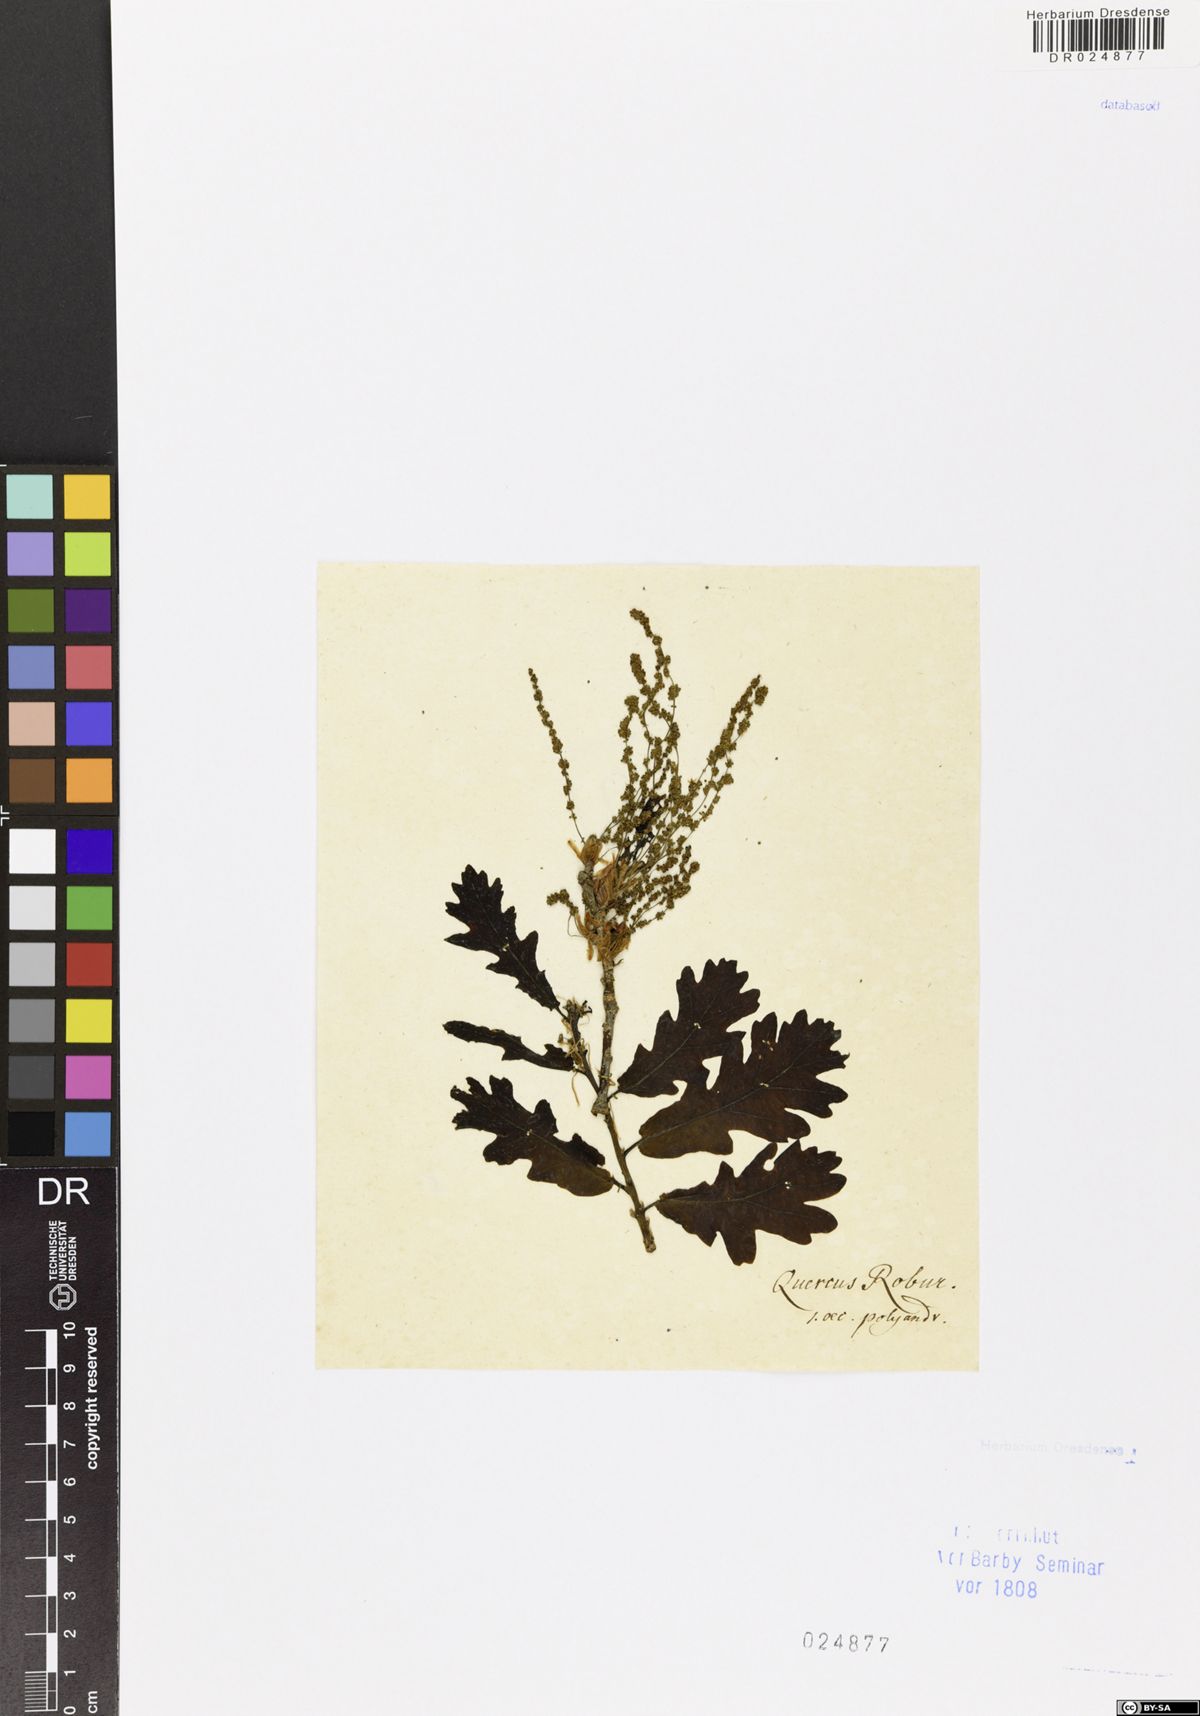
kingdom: Plantae
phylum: Tracheophyta
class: Magnoliopsida
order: Fagales
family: Fagaceae
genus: Quercus
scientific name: Quercus petraea
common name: Sessile oak
